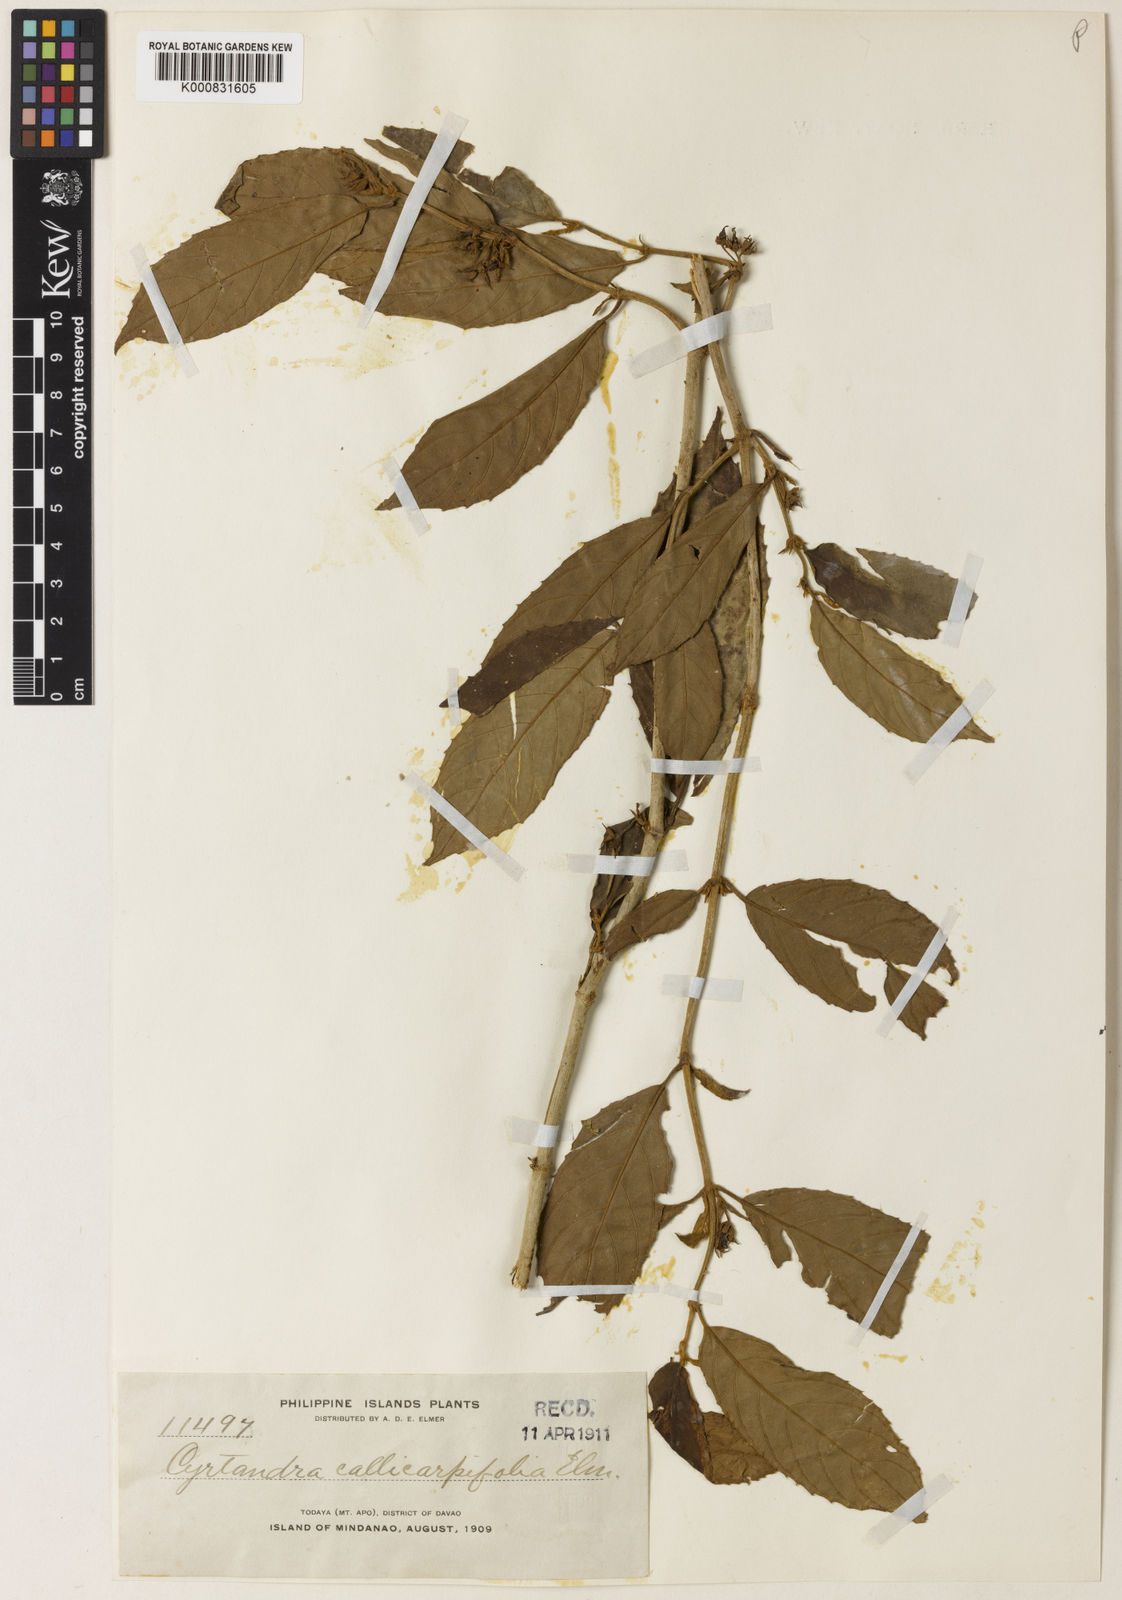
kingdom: Plantae
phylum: Tracheophyta
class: Magnoliopsida
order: Lamiales
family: Gesneriaceae
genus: Cyrtandra
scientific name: Cyrtandra callicarpifolia
